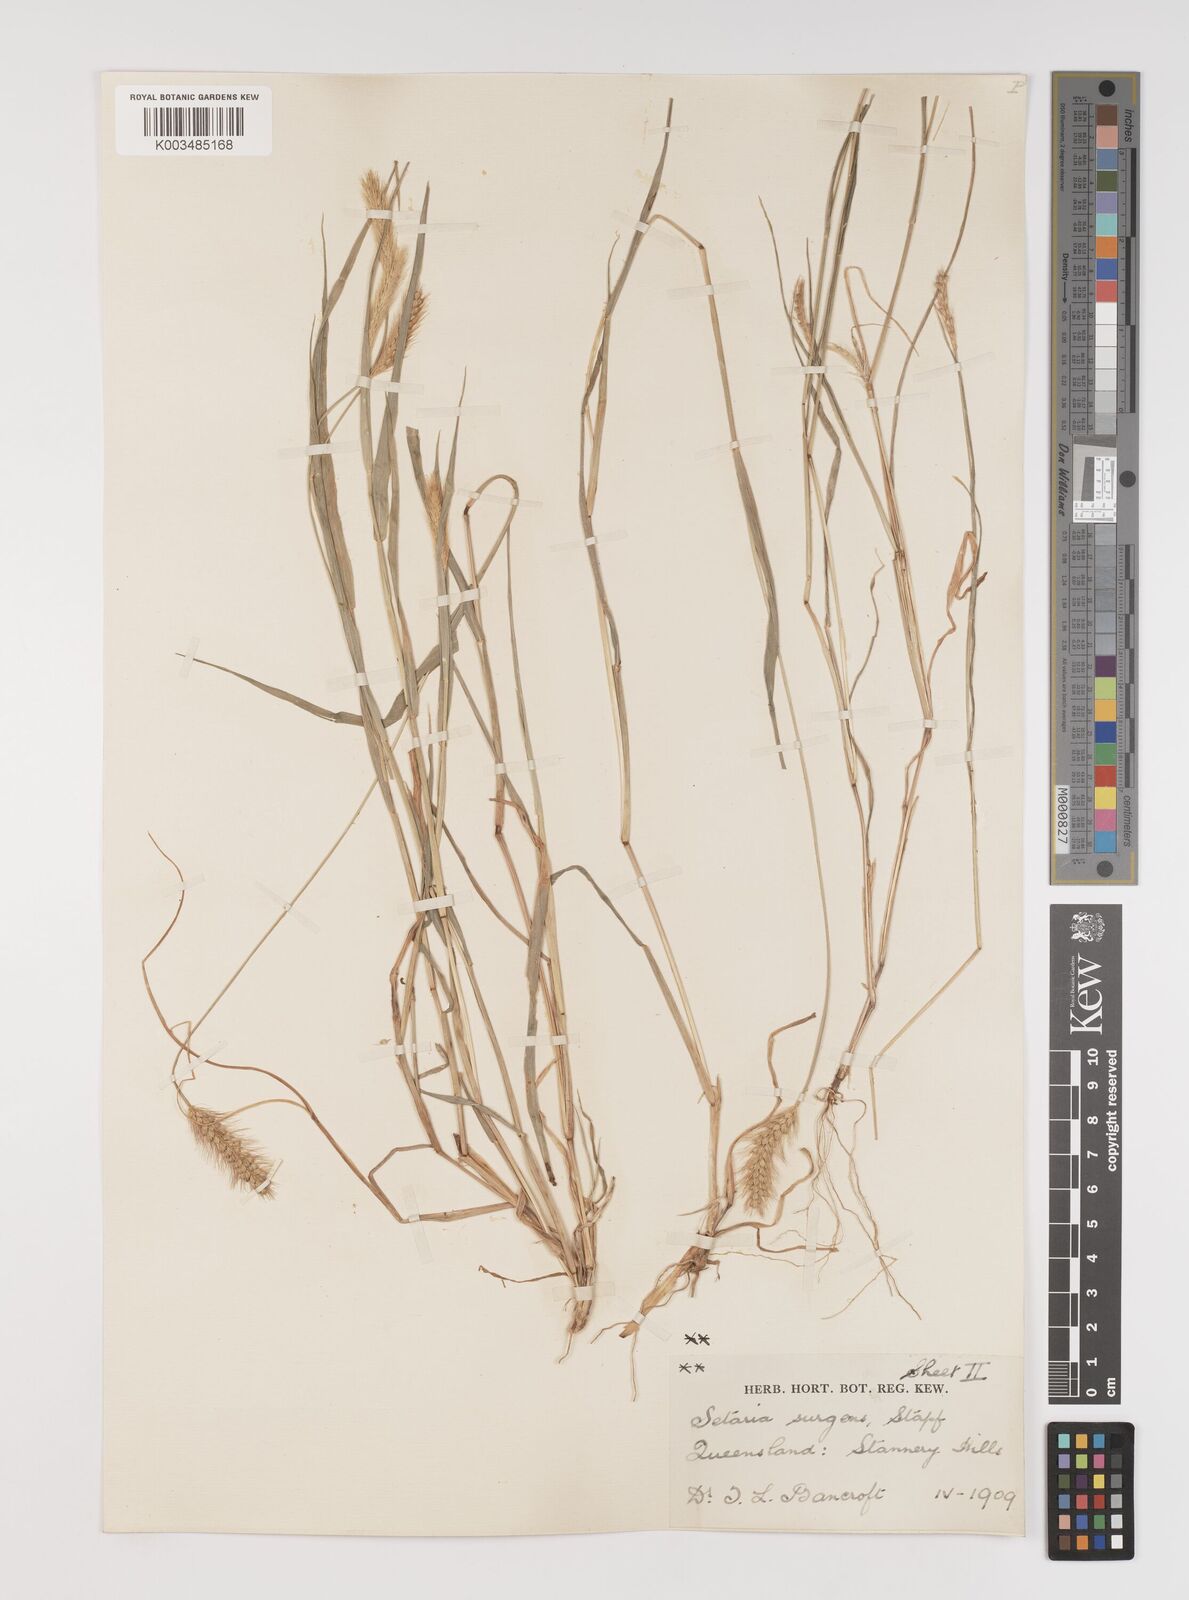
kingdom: Plantae
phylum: Tracheophyta
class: Liliopsida
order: Poales
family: Poaceae
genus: Setaria
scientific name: Setaria brownii
